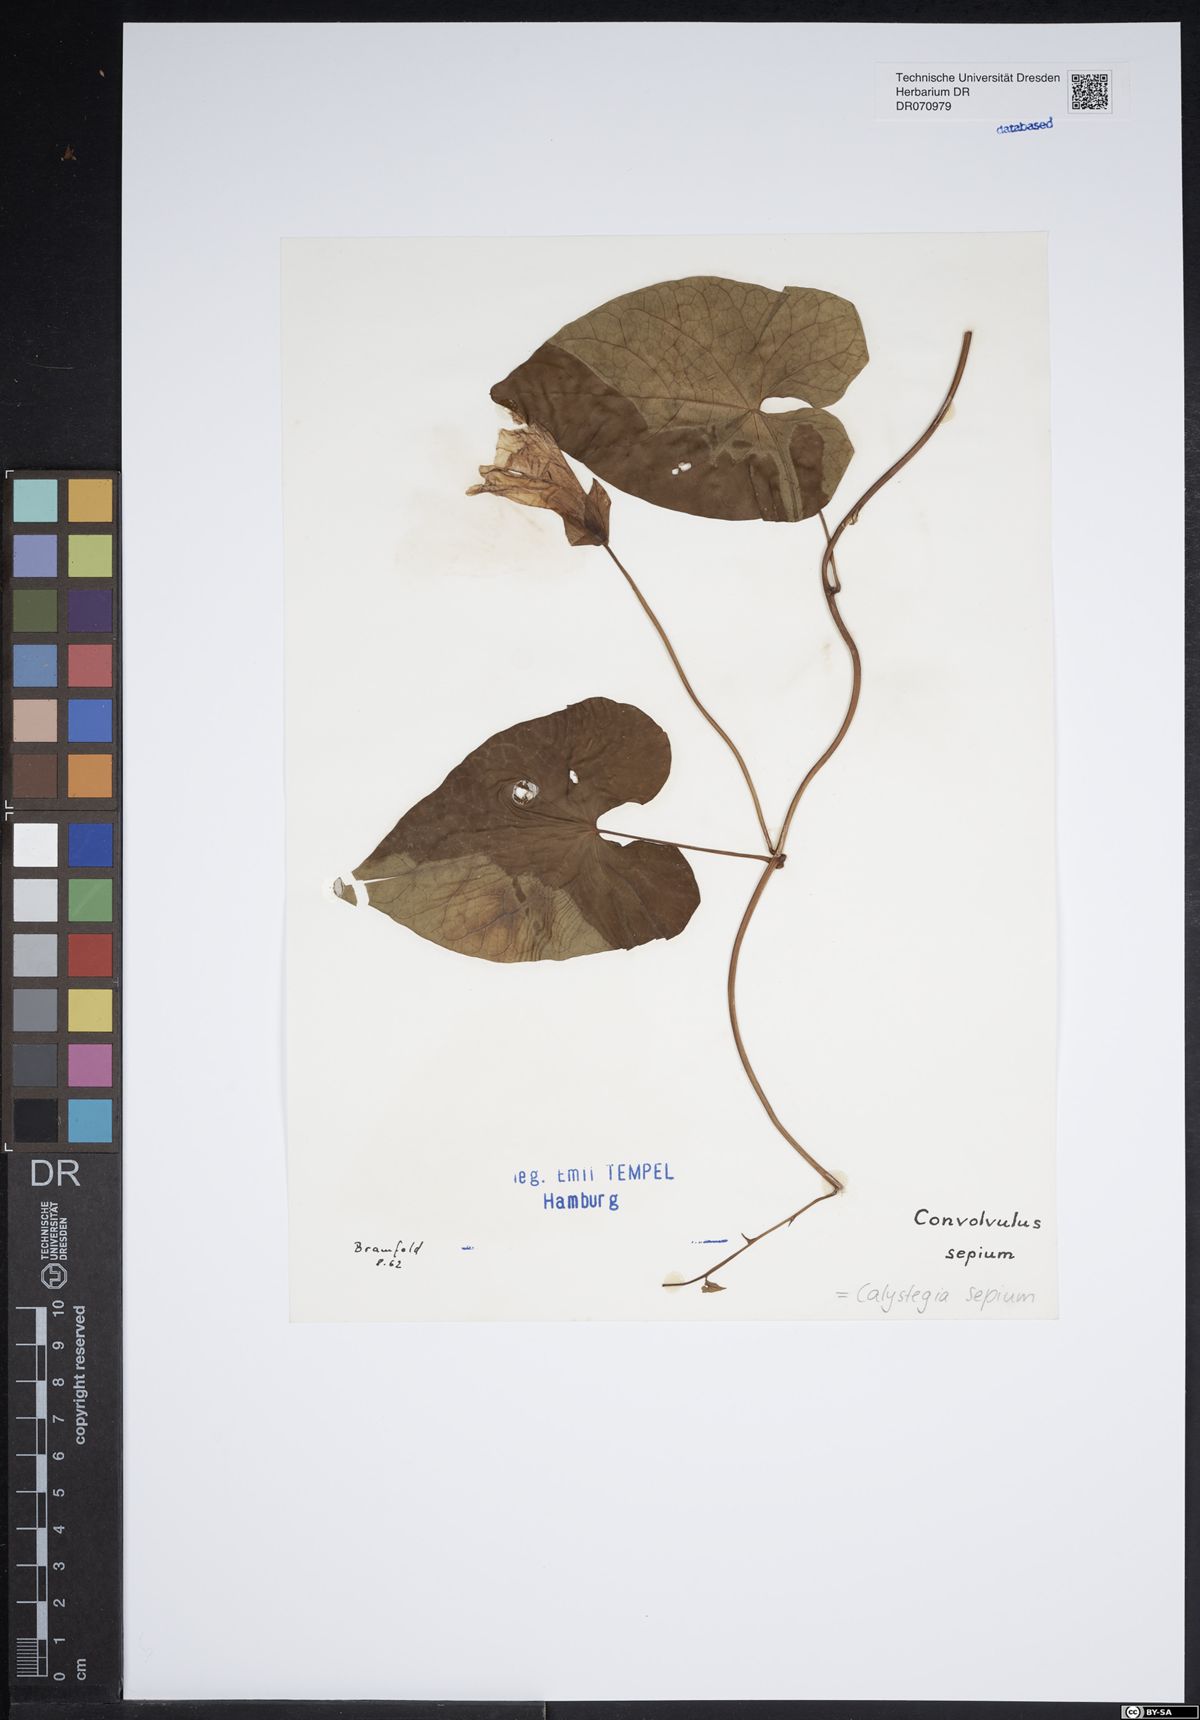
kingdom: Plantae
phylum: Tracheophyta
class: Magnoliopsida
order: Solanales
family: Convolvulaceae
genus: Calystegia
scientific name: Calystegia sepium
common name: Hedge bindweed
